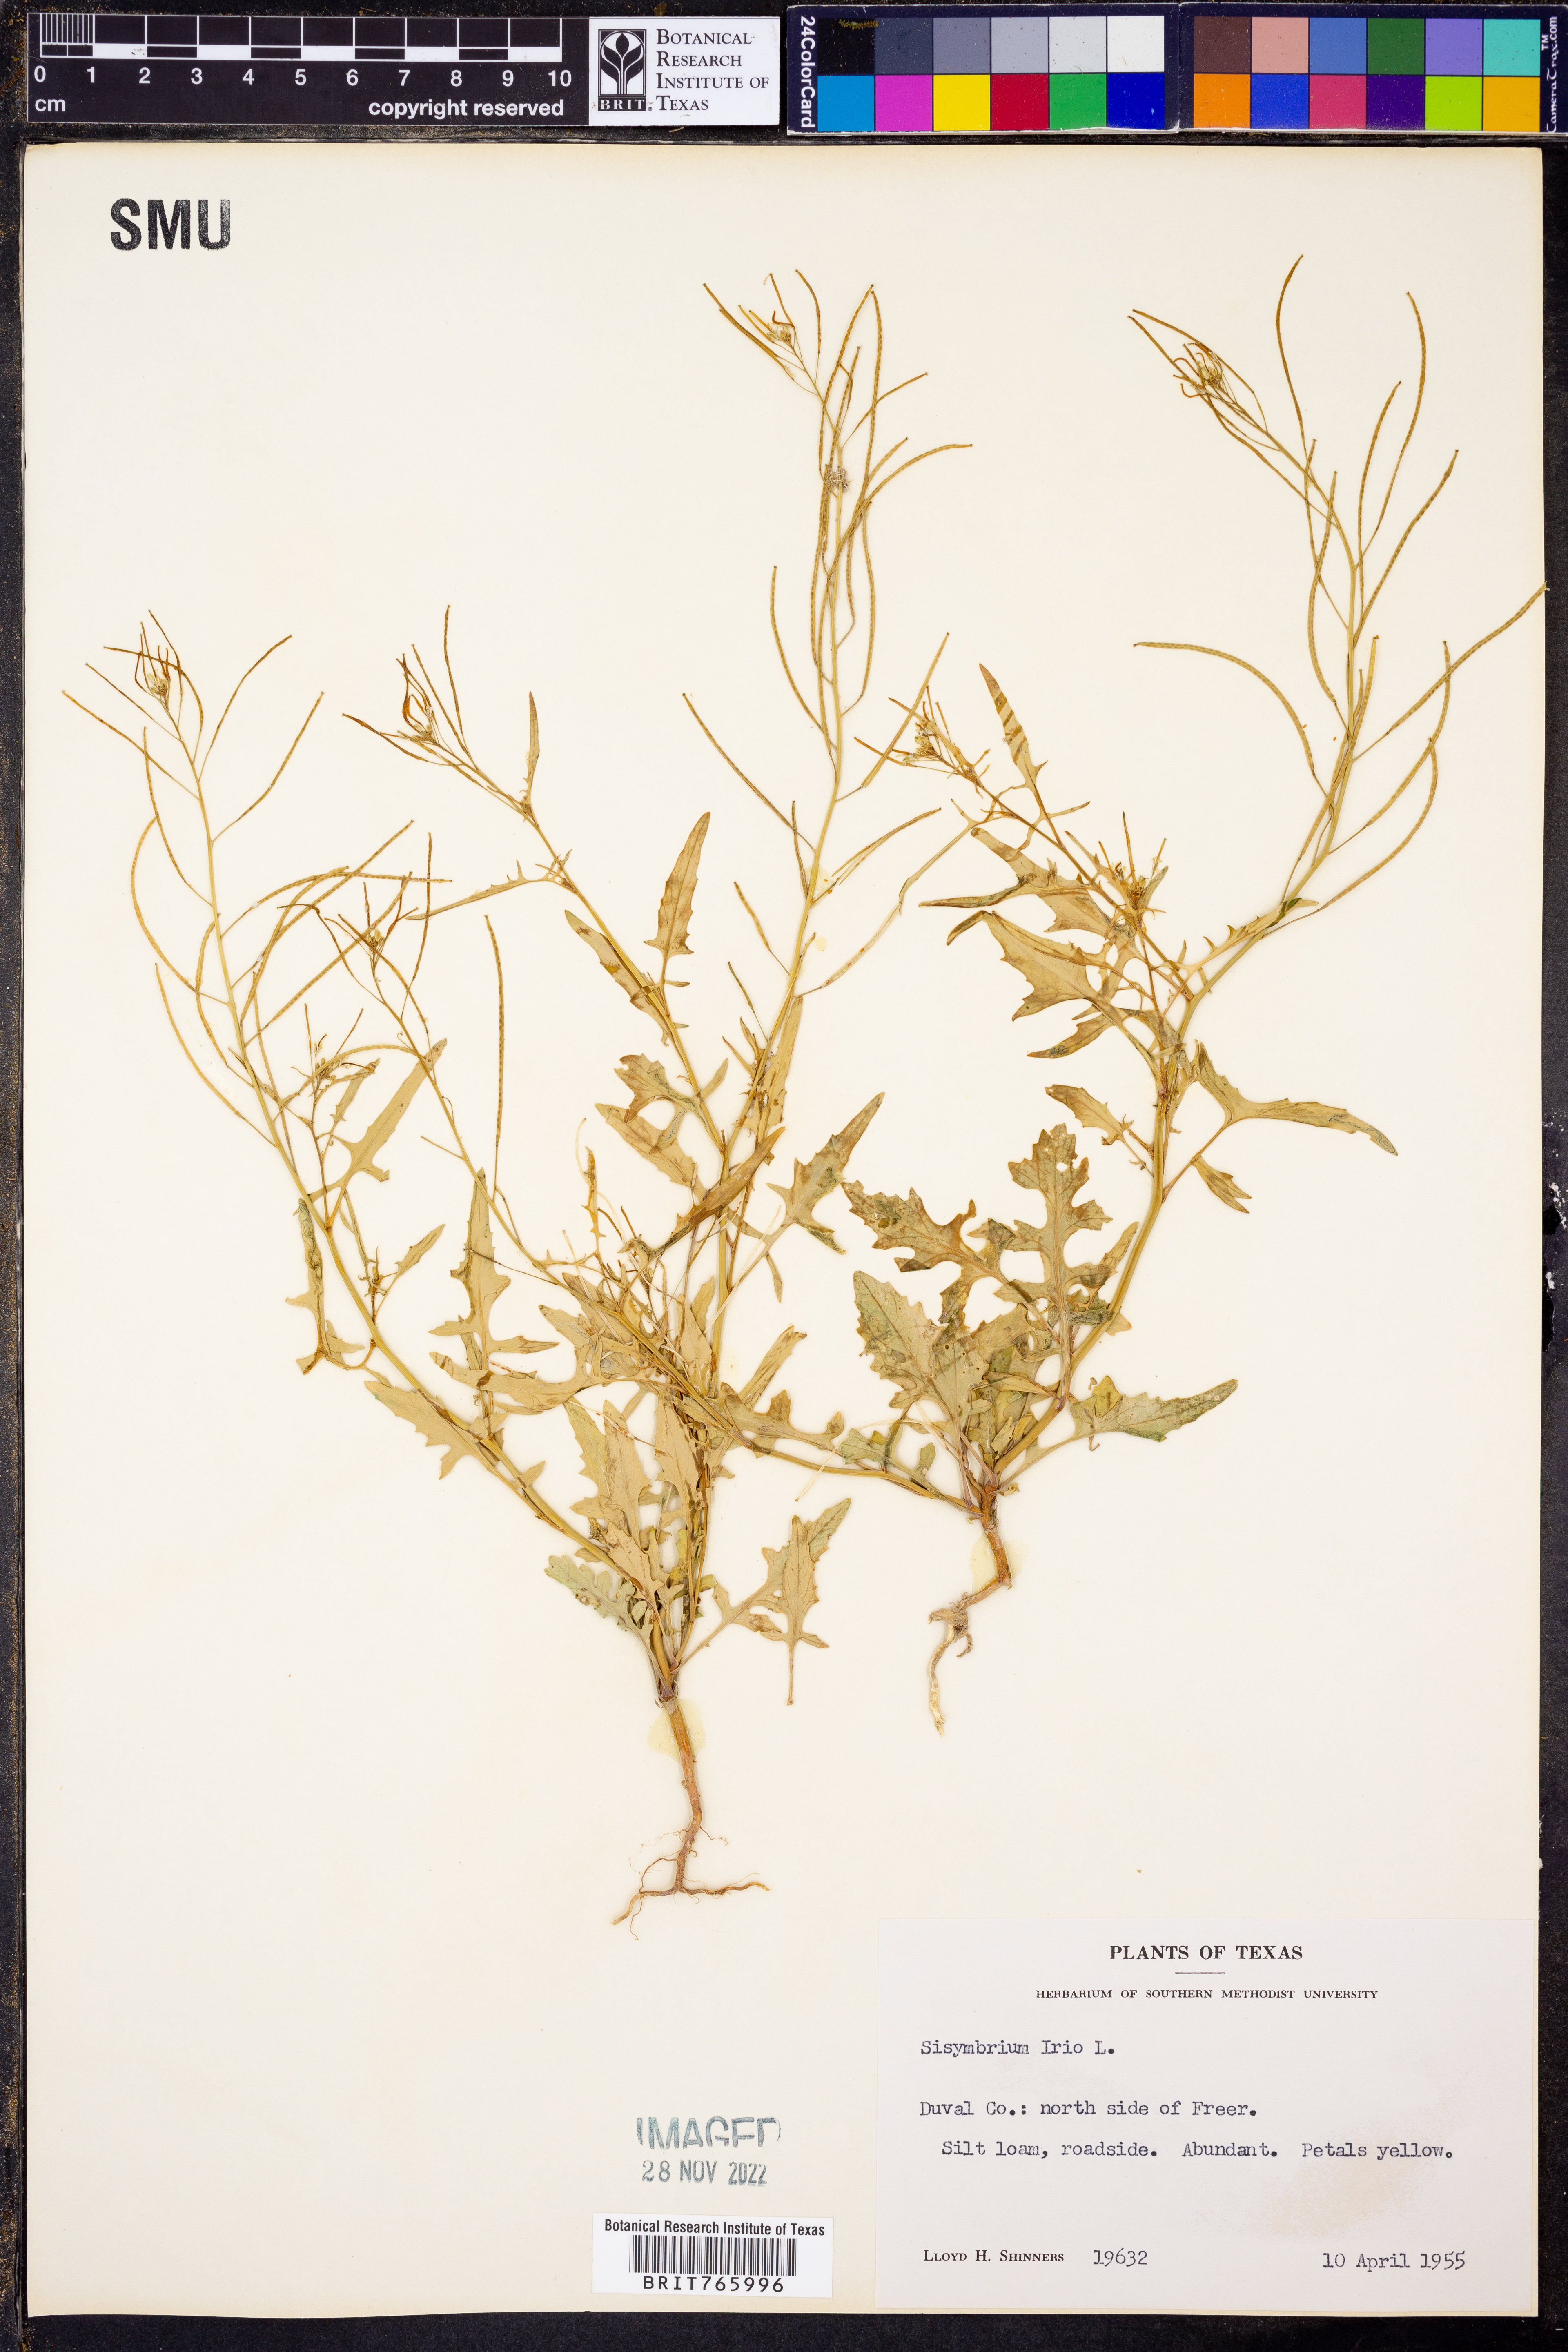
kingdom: Plantae
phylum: Tracheophyta
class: Magnoliopsida
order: Brassicales
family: Brassicaceae
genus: Sisymbrium
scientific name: Sisymbrium irio
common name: London rocket
